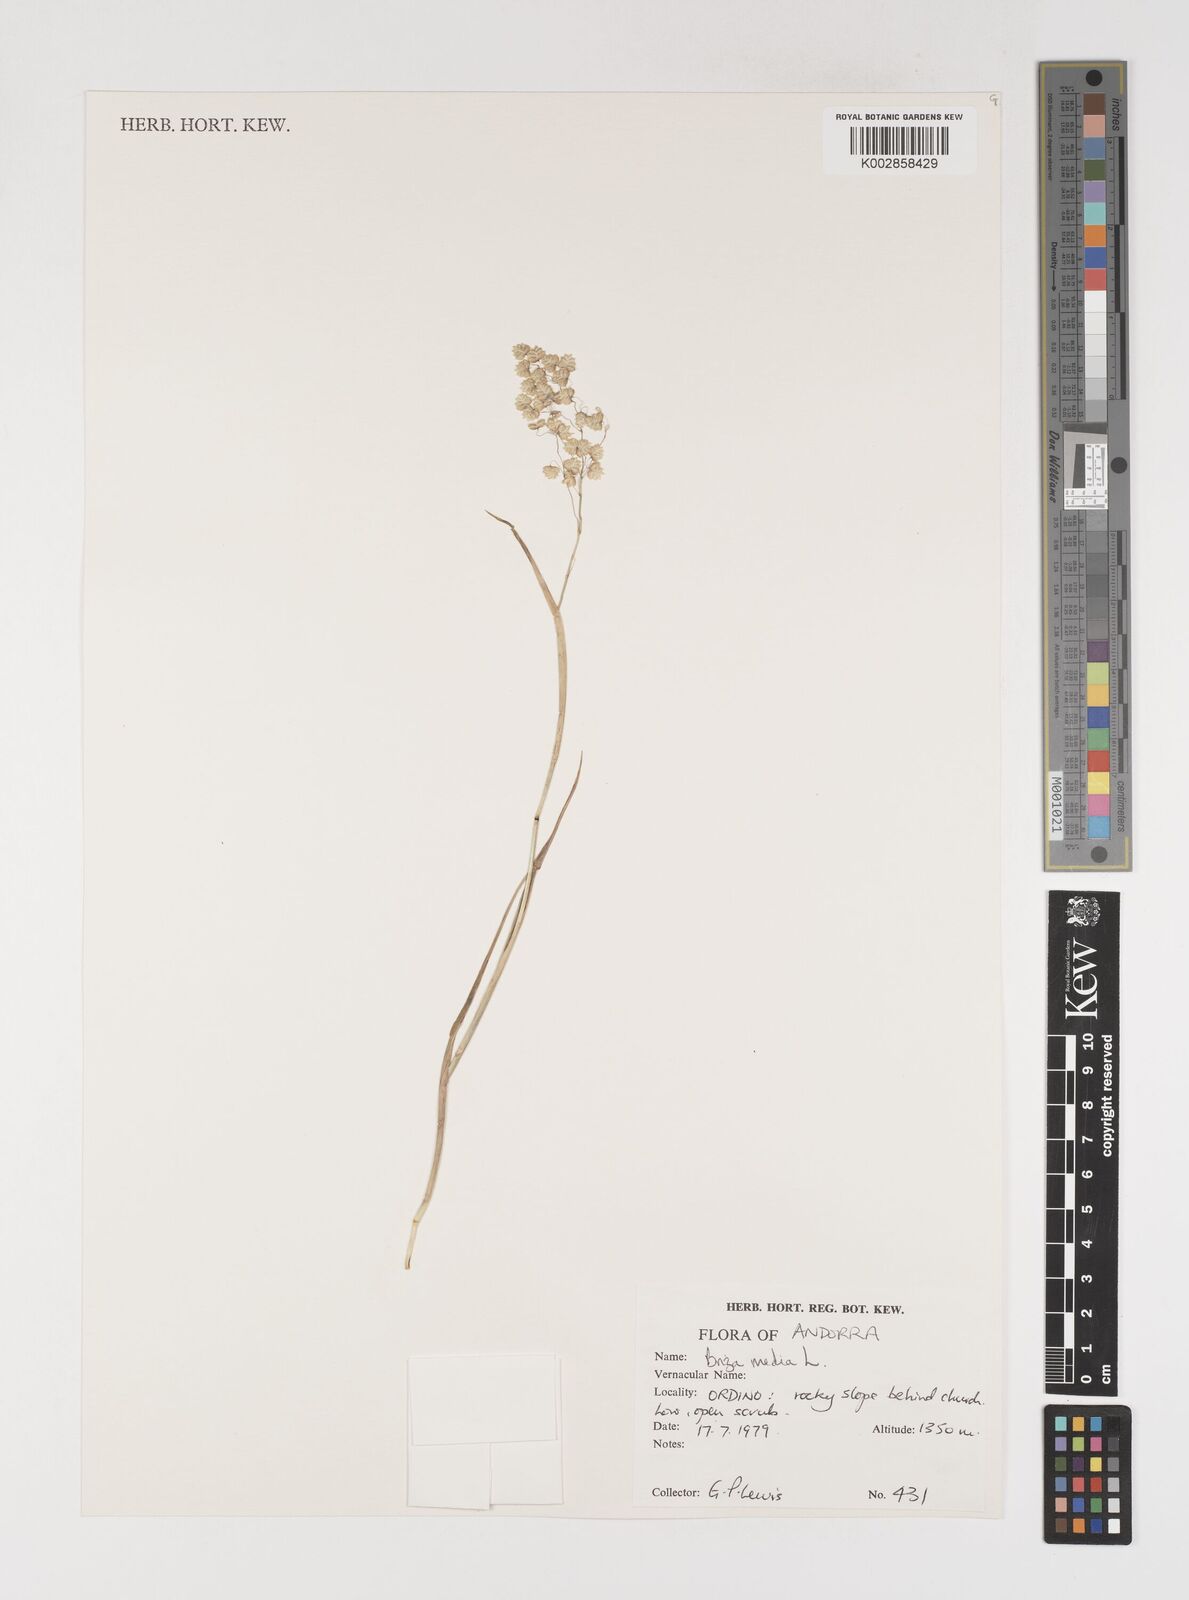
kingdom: Plantae
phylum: Tracheophyta
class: Liliopsida
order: Poales
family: Poaceae
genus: Briza
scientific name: Briza media
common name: Quaking grass
